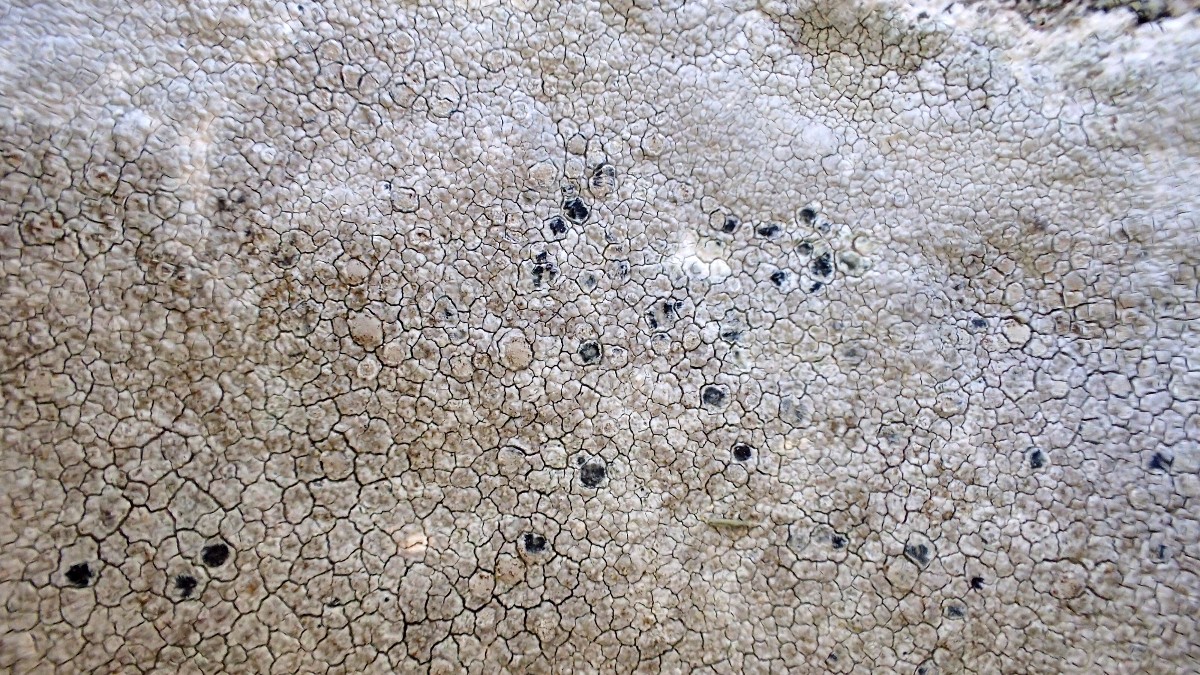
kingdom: Fungi
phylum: Ascomycota
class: Lecanoromycetes
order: Lecanorales
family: Lecanoraceae
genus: Glaucomaria
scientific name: Glaucomaria rupicola
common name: stengærde-kantskivelav
